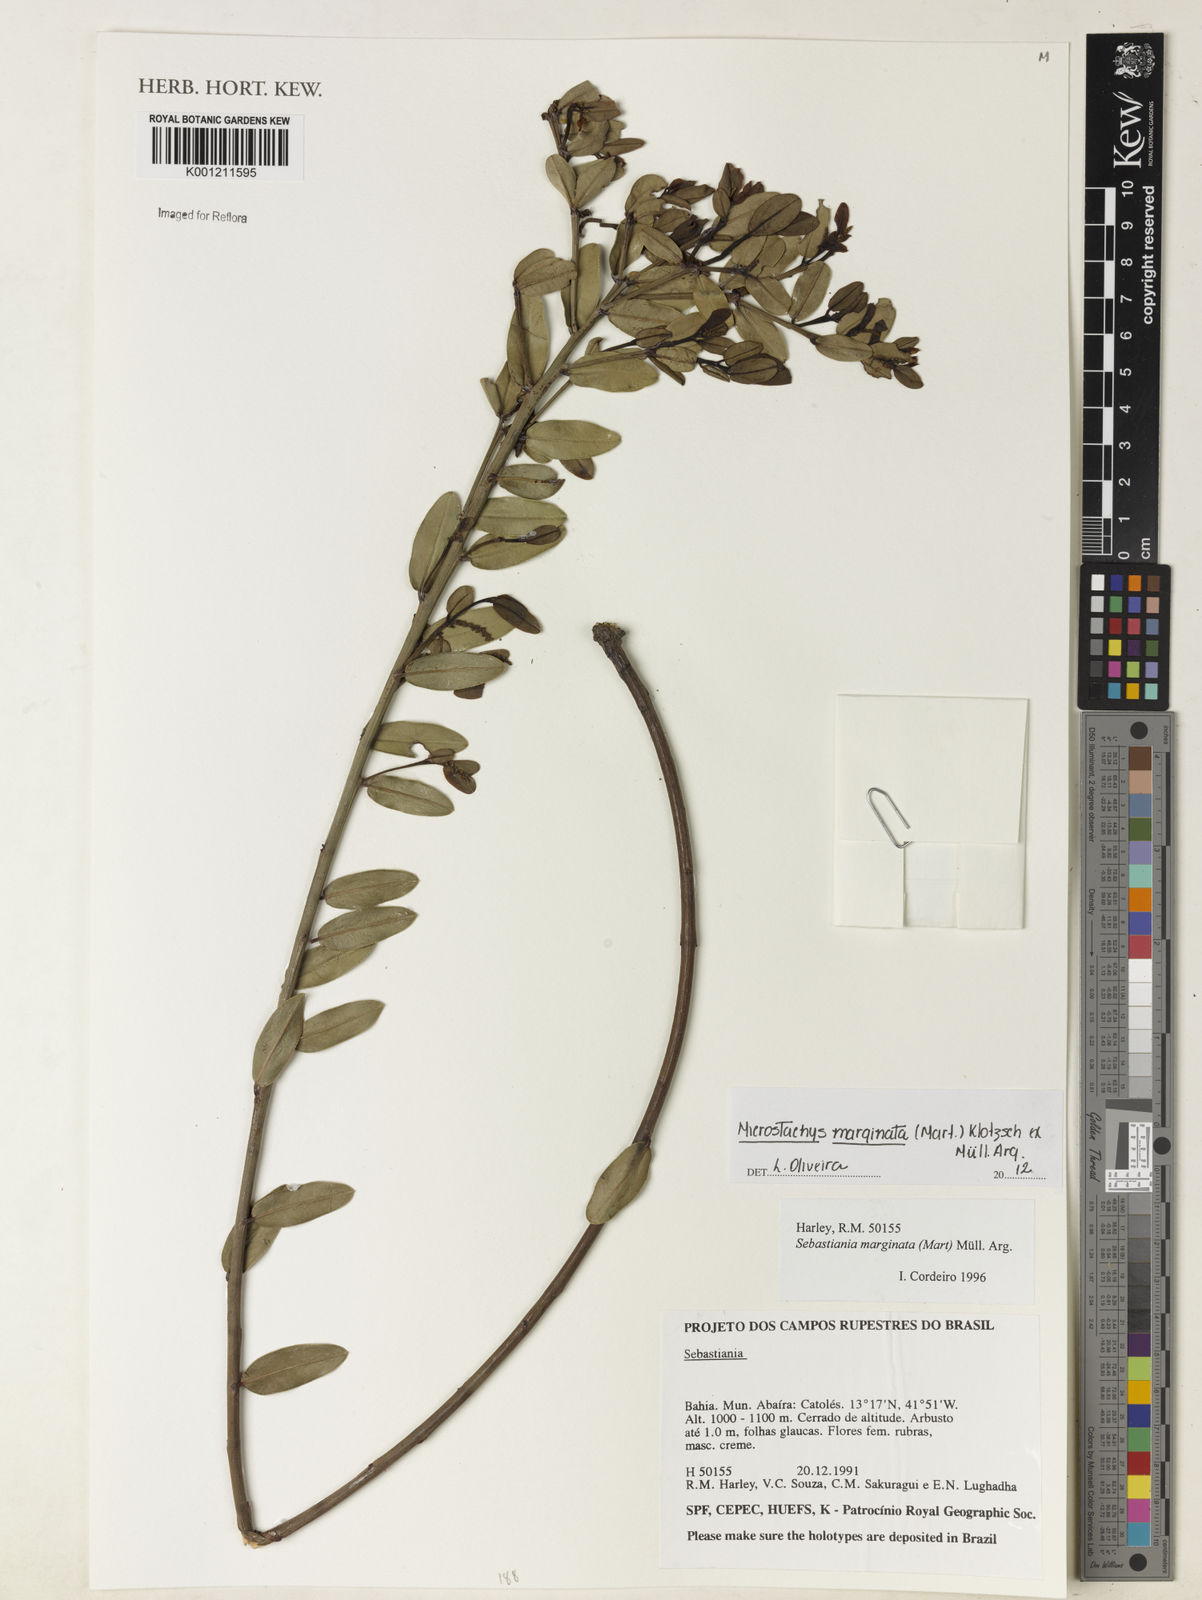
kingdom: Plantae
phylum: Tracheophyta
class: Magnoliopsida
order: Malpighiales
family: Euphorbiaceae
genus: Microstachys
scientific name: Microstachys
